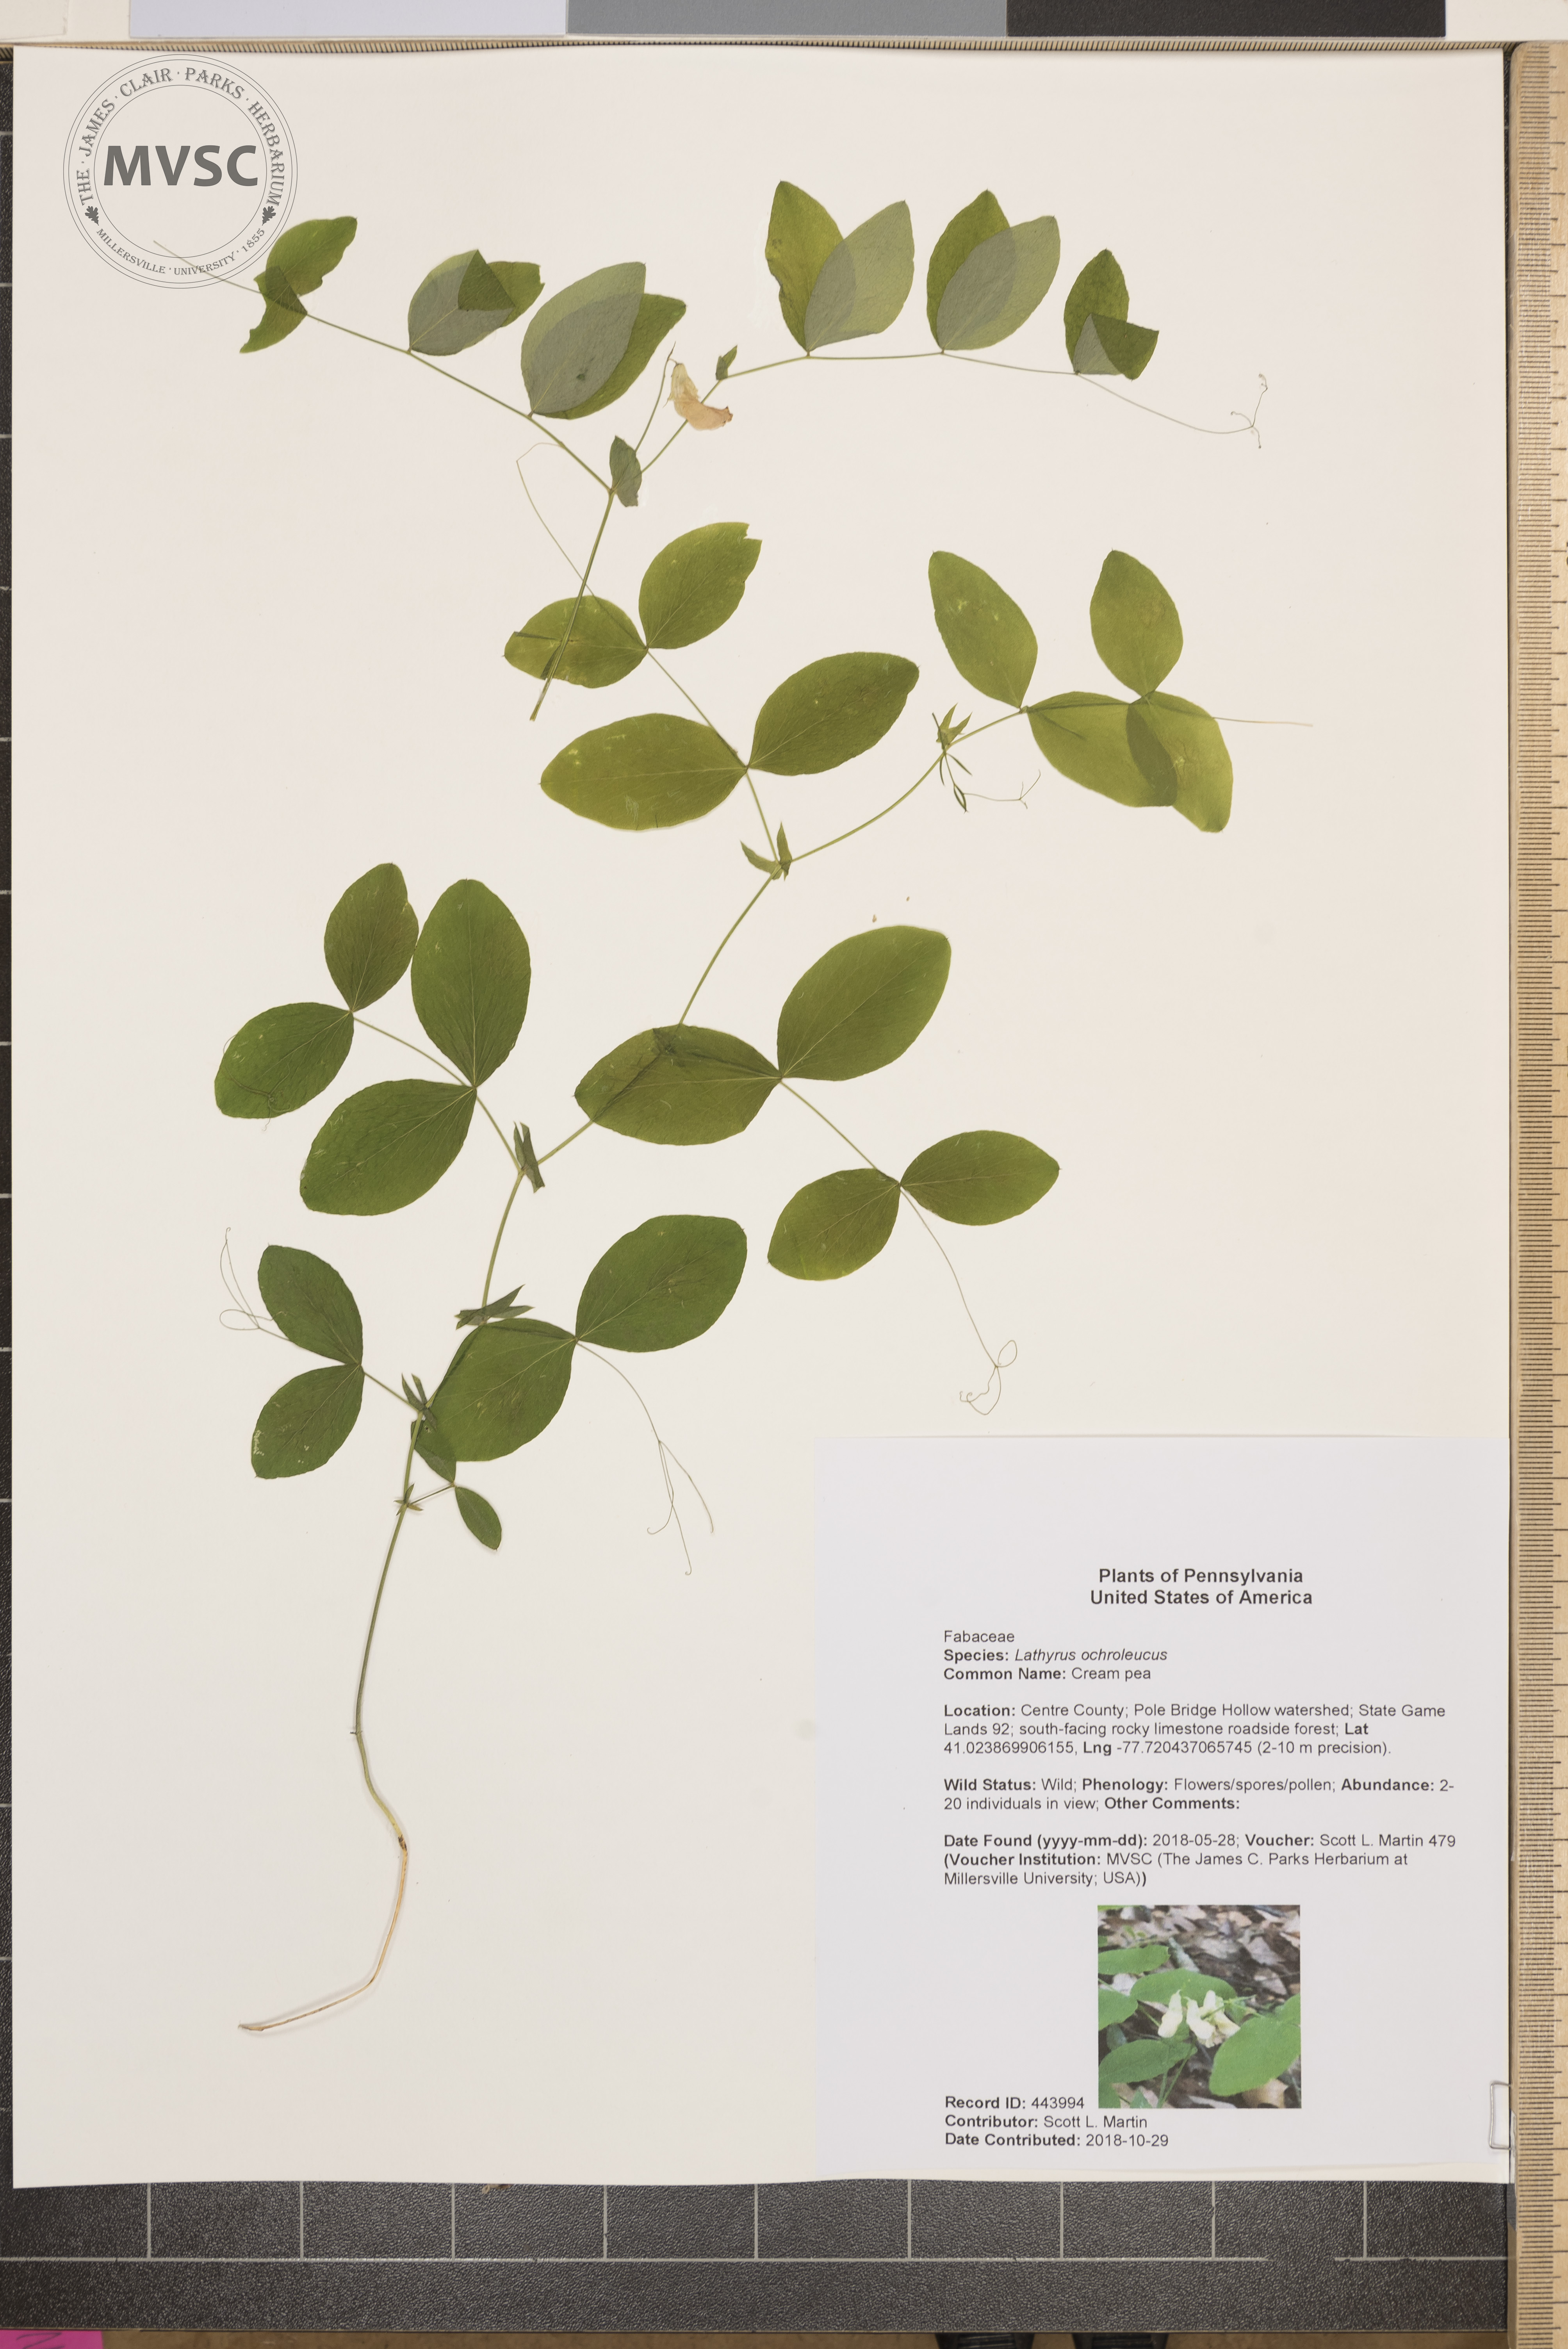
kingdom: Plantae
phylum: Tracheophyta
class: Magnoliopsida
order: Fabales
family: Fabaceae
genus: Lathyrus
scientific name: Lathyrus ochroleucus
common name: Cream pea
